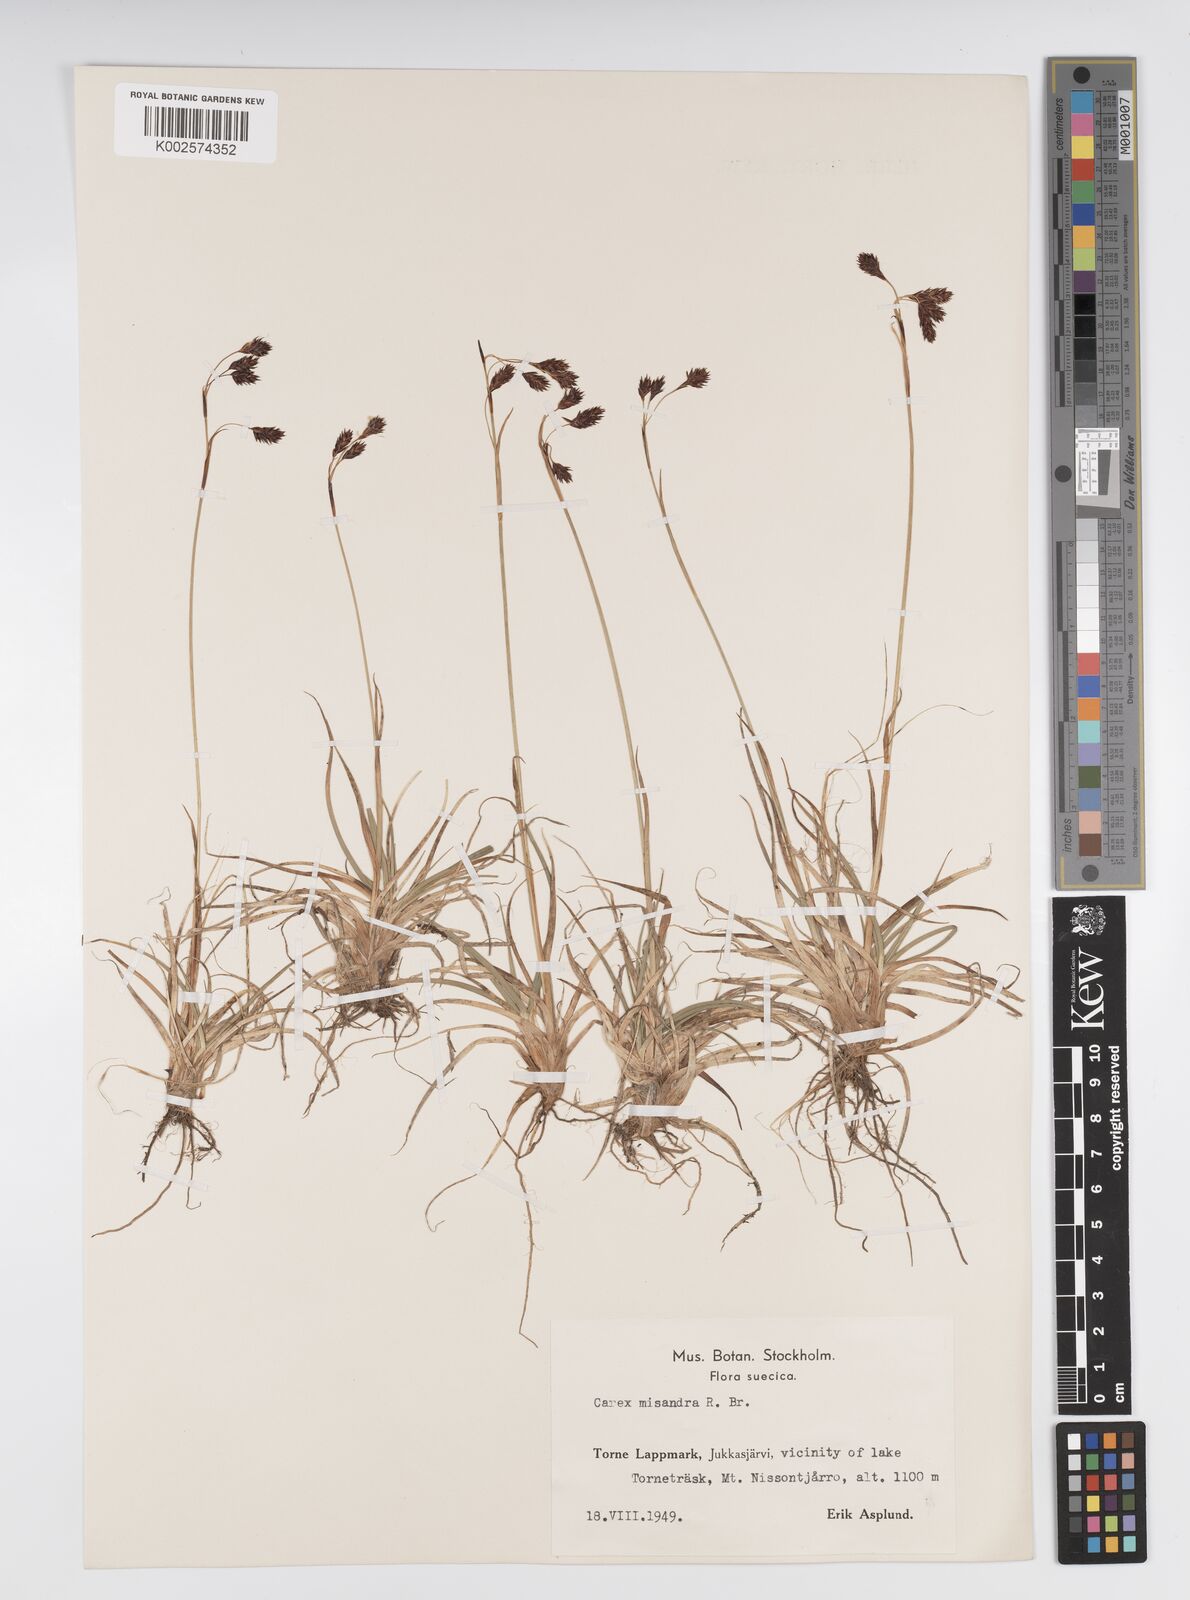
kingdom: Plantae
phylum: Tracheophyta
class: Liliopsida
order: Poales
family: Cyperaceae
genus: Carex
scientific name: Carex fuliginosa
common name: Few-flowered sedge
